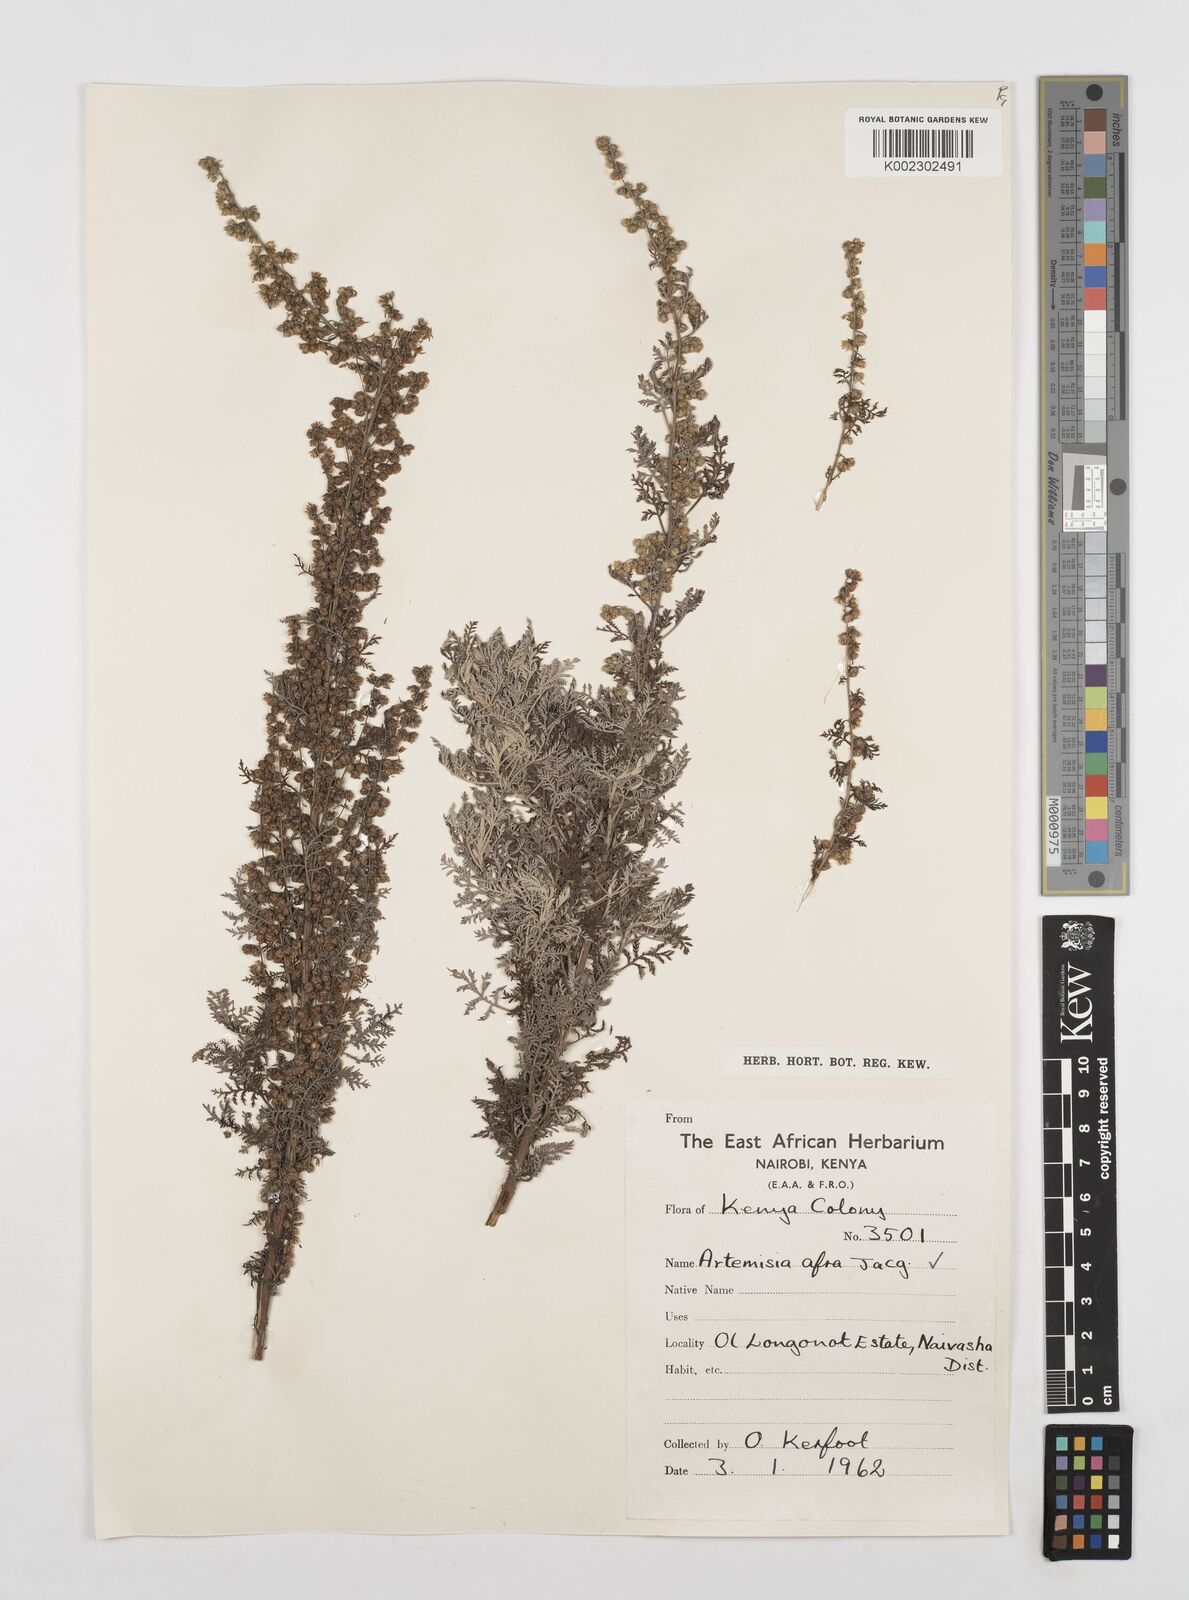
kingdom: Plantae
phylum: Tracheophyta
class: Magnoliopsida
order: Asterales
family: Asteraceae
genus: Artemisia
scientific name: Artemisia afra
